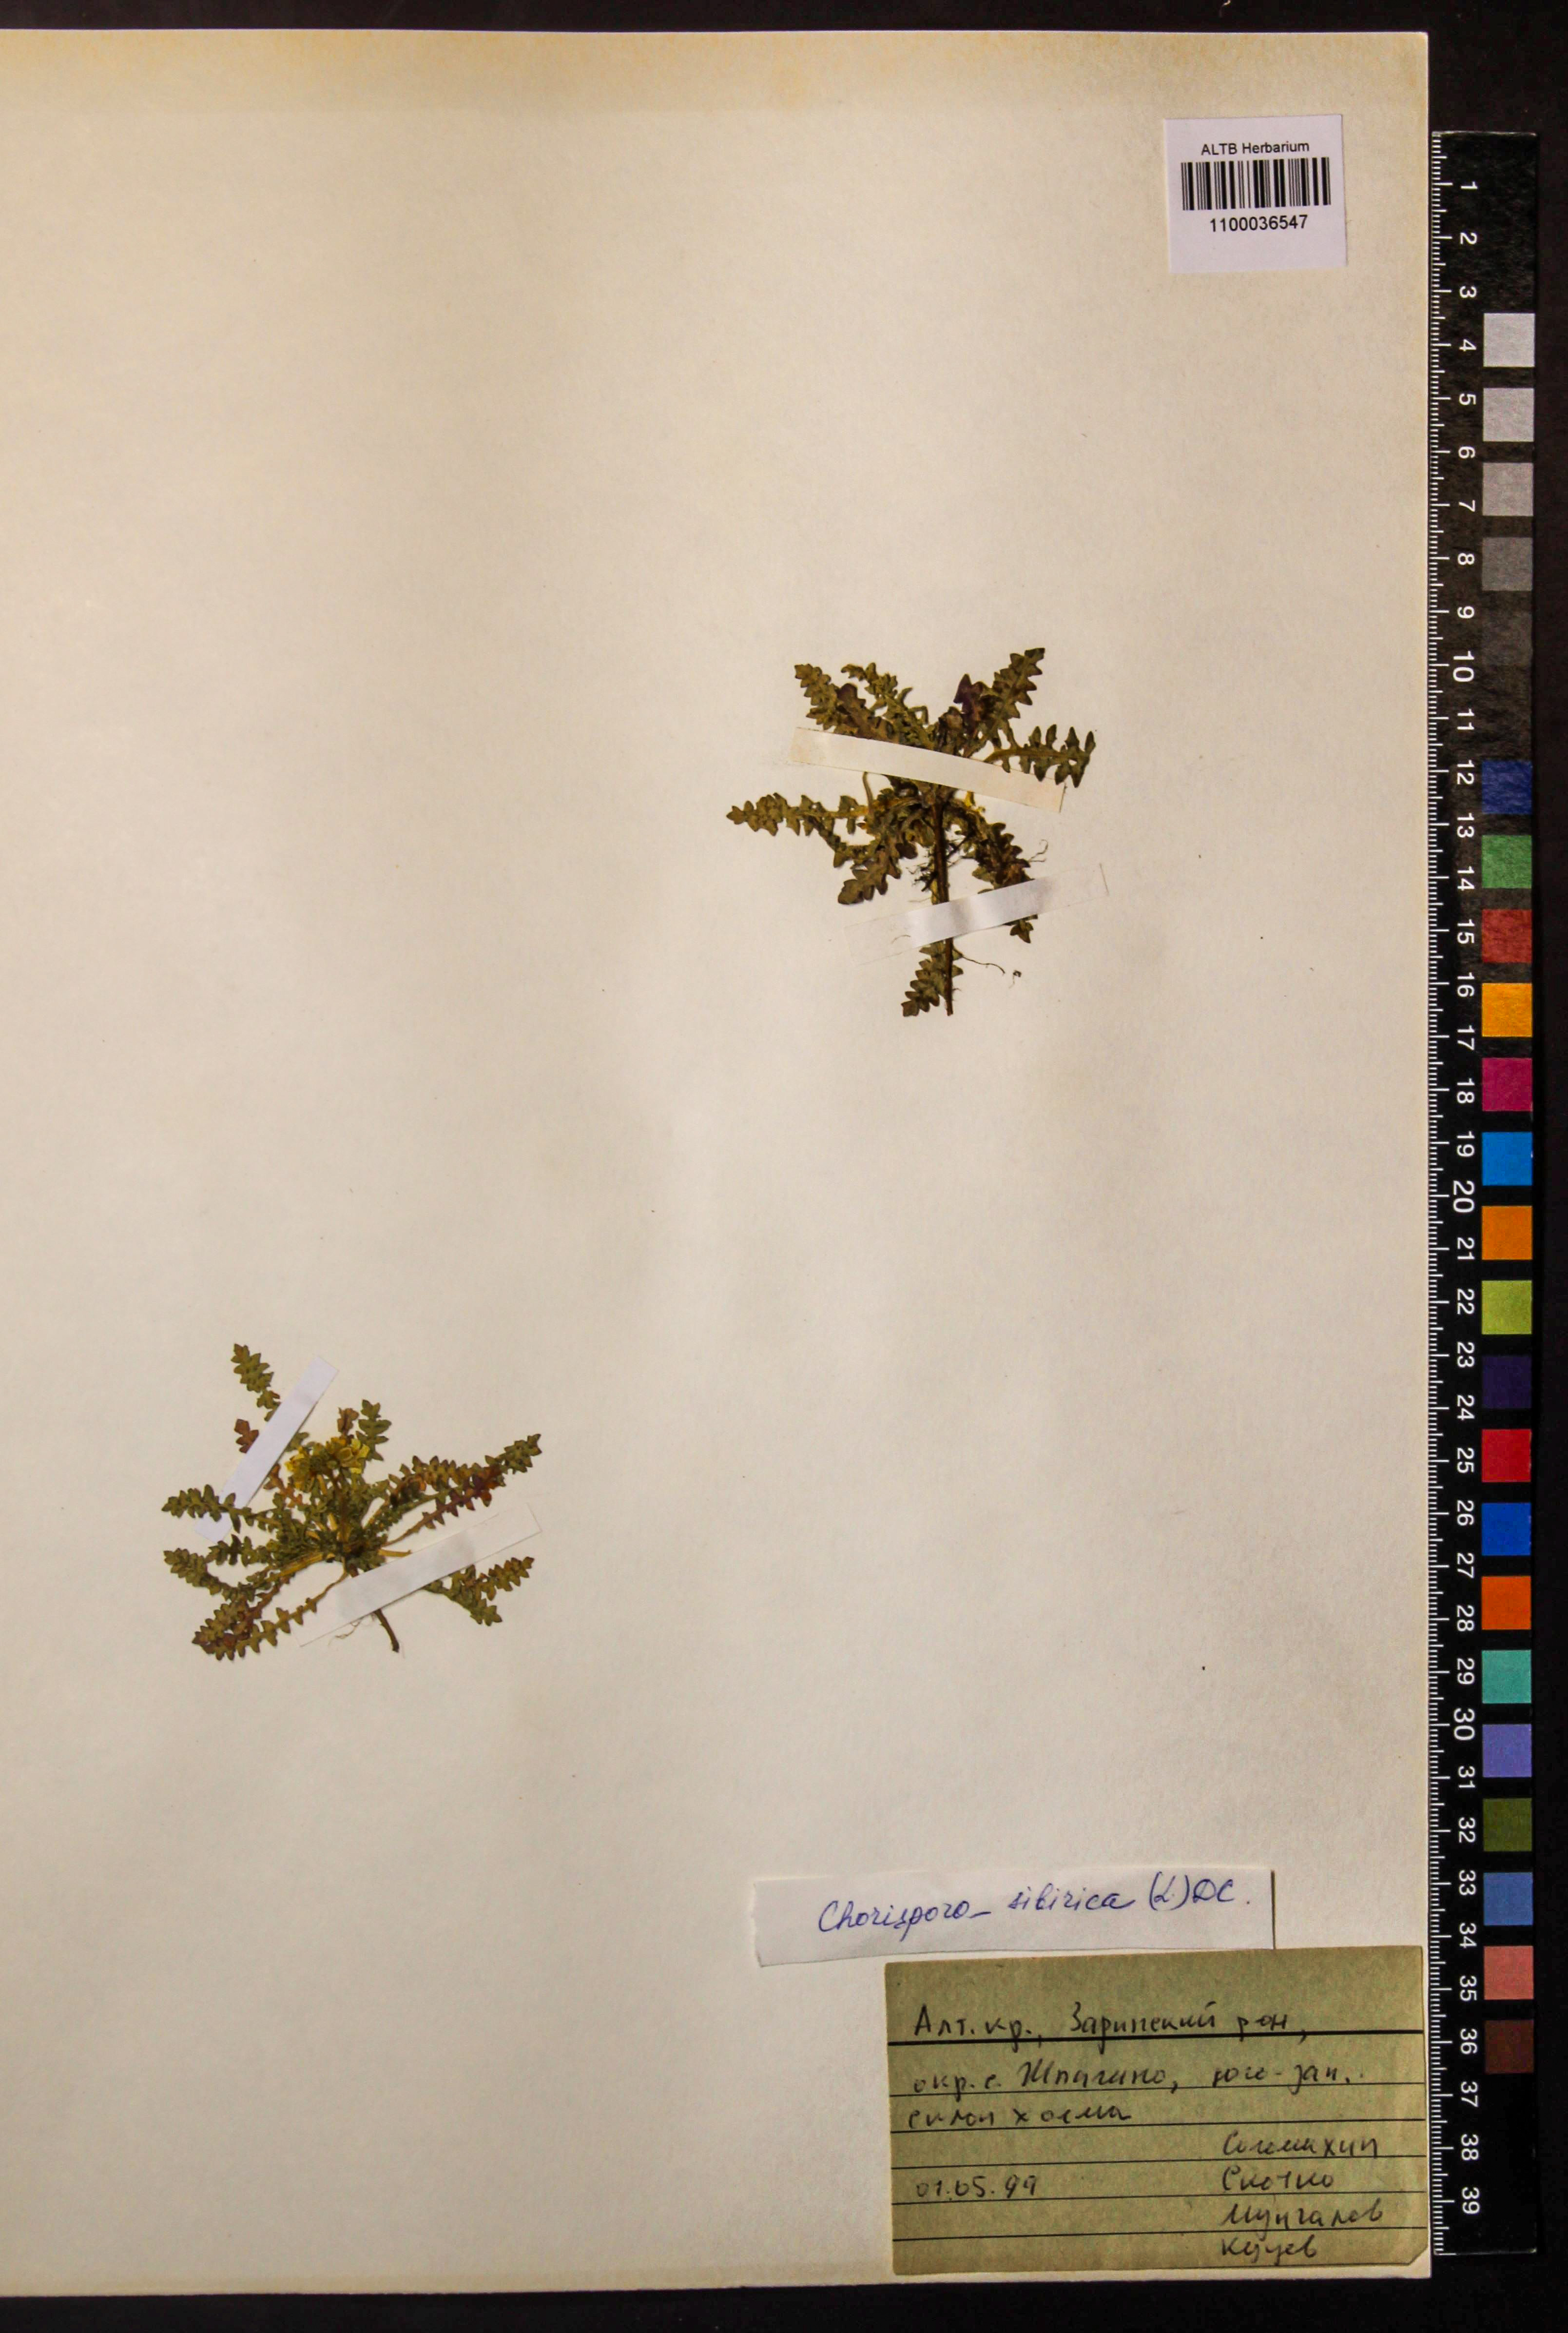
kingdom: Plantae
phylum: Tracheophyta
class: Magnoliopsida
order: Brassicales
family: Brassicaceae
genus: Chorispora
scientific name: Chorispora sibirica
